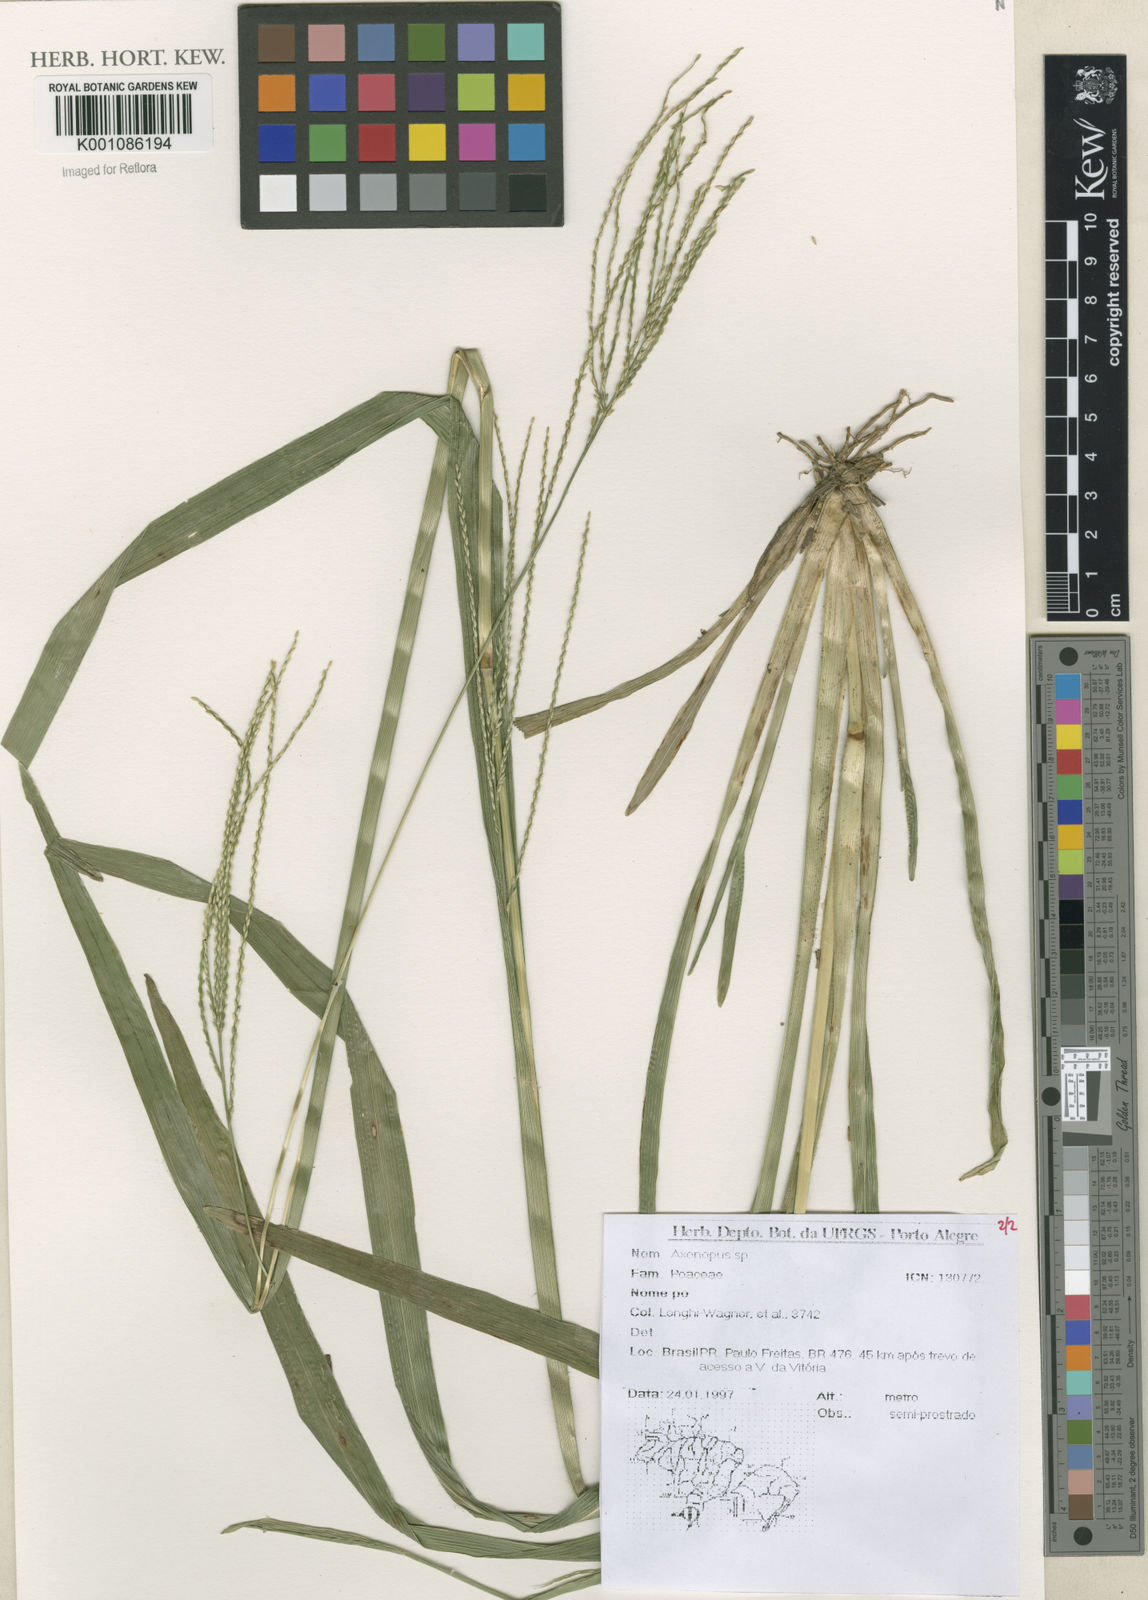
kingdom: Plantae
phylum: Tracheophyta
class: Liliopsida
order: Poales
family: Poaceae
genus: Axonopus
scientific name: Axonopus
